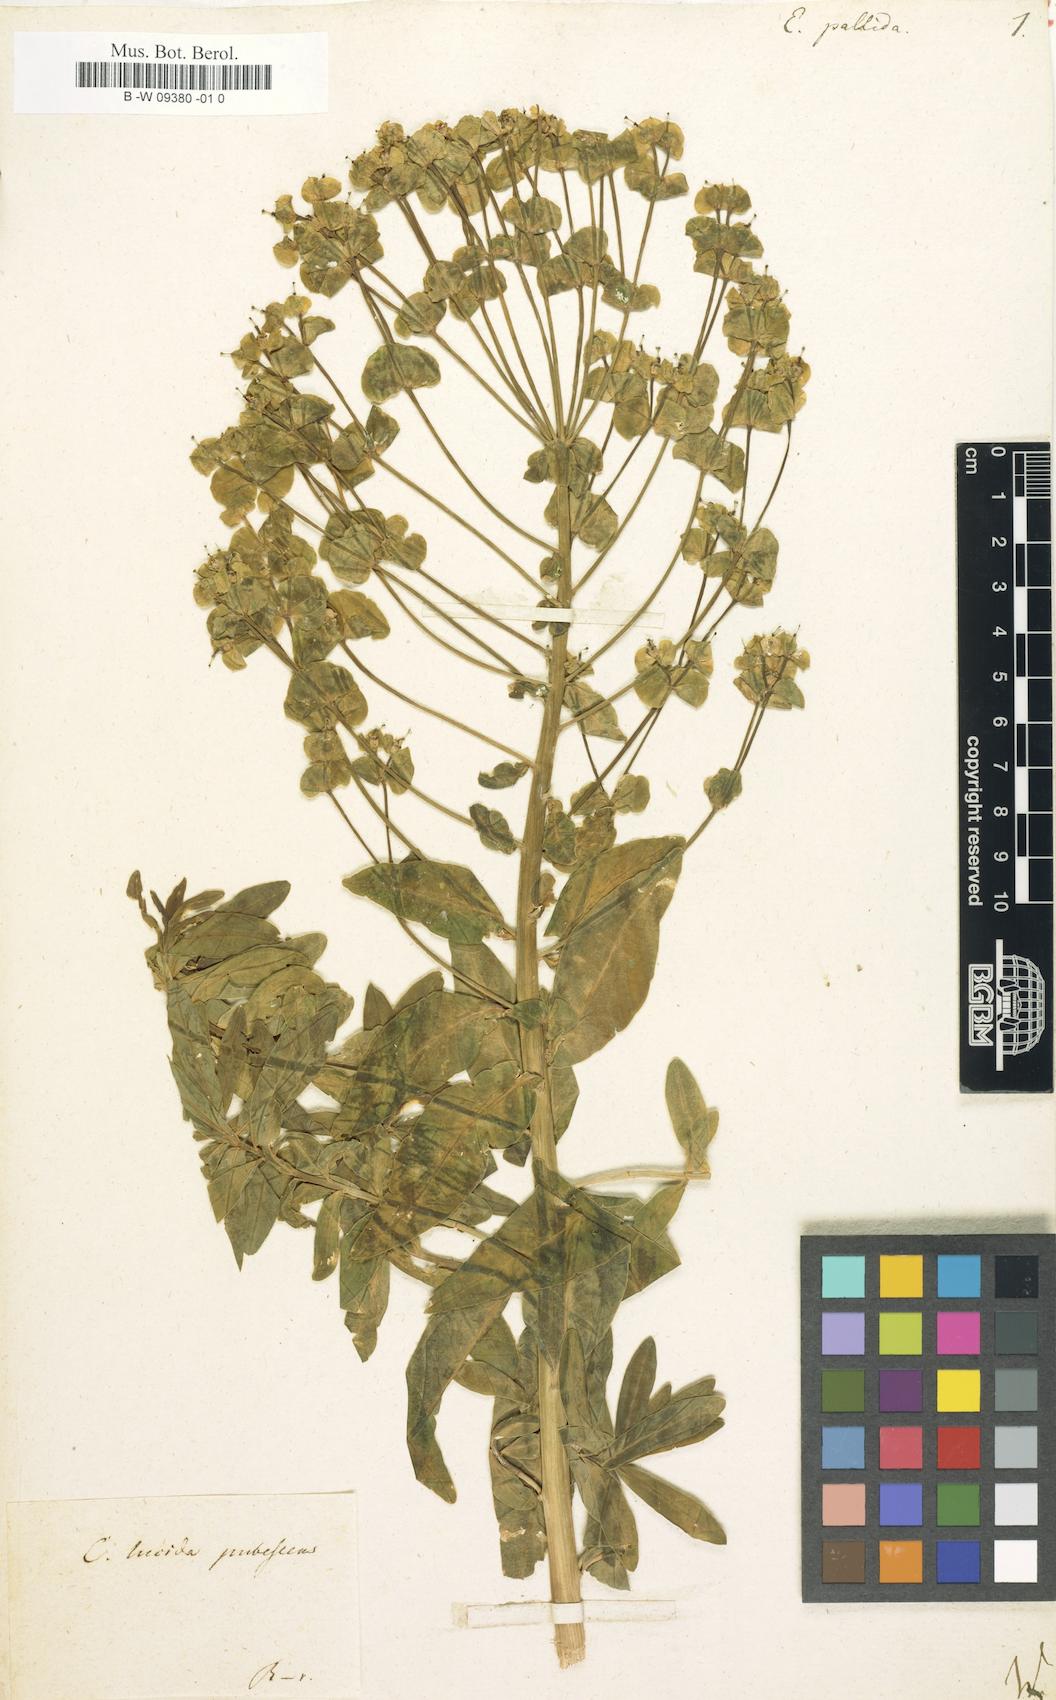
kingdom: Plantae
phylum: Tracheophyta
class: Magnoliopsida
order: Malpighiales
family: Euphorbiaceae
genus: Euphorbia
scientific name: Euphorbia salicifolia
